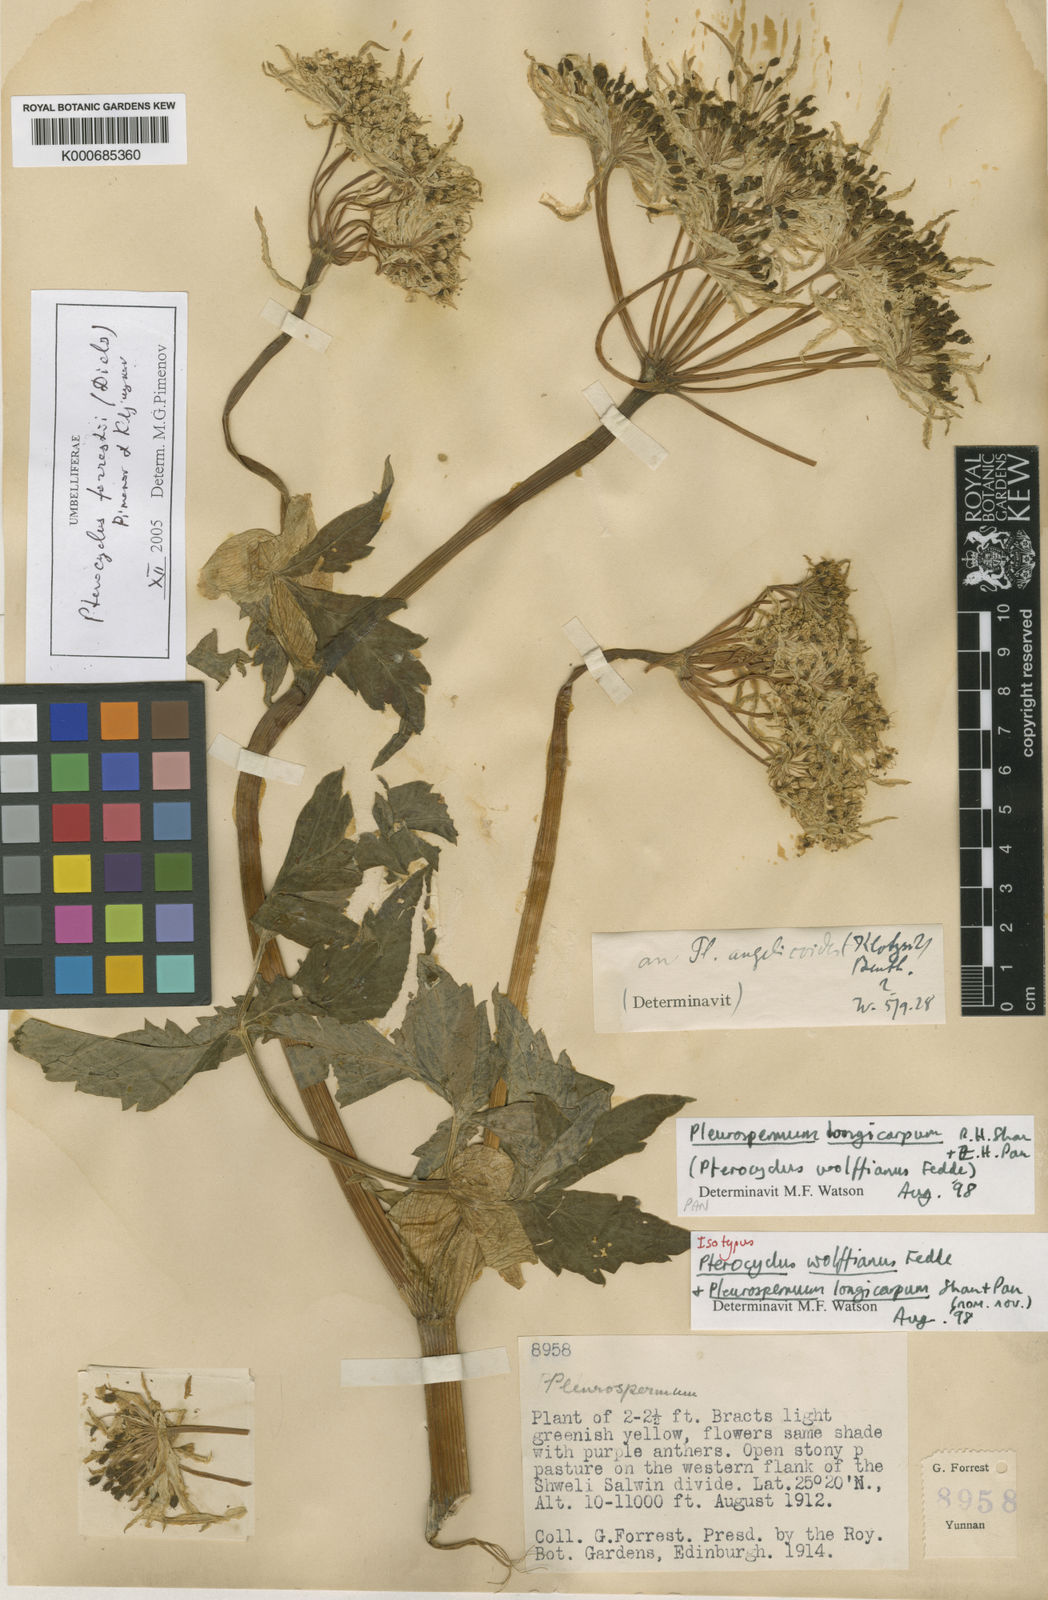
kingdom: Plantae
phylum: Tracheophyta
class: Magnoliopsida
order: Apiales
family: Apiaceae
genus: Pterocyclus
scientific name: Pterocyclus forrestii
